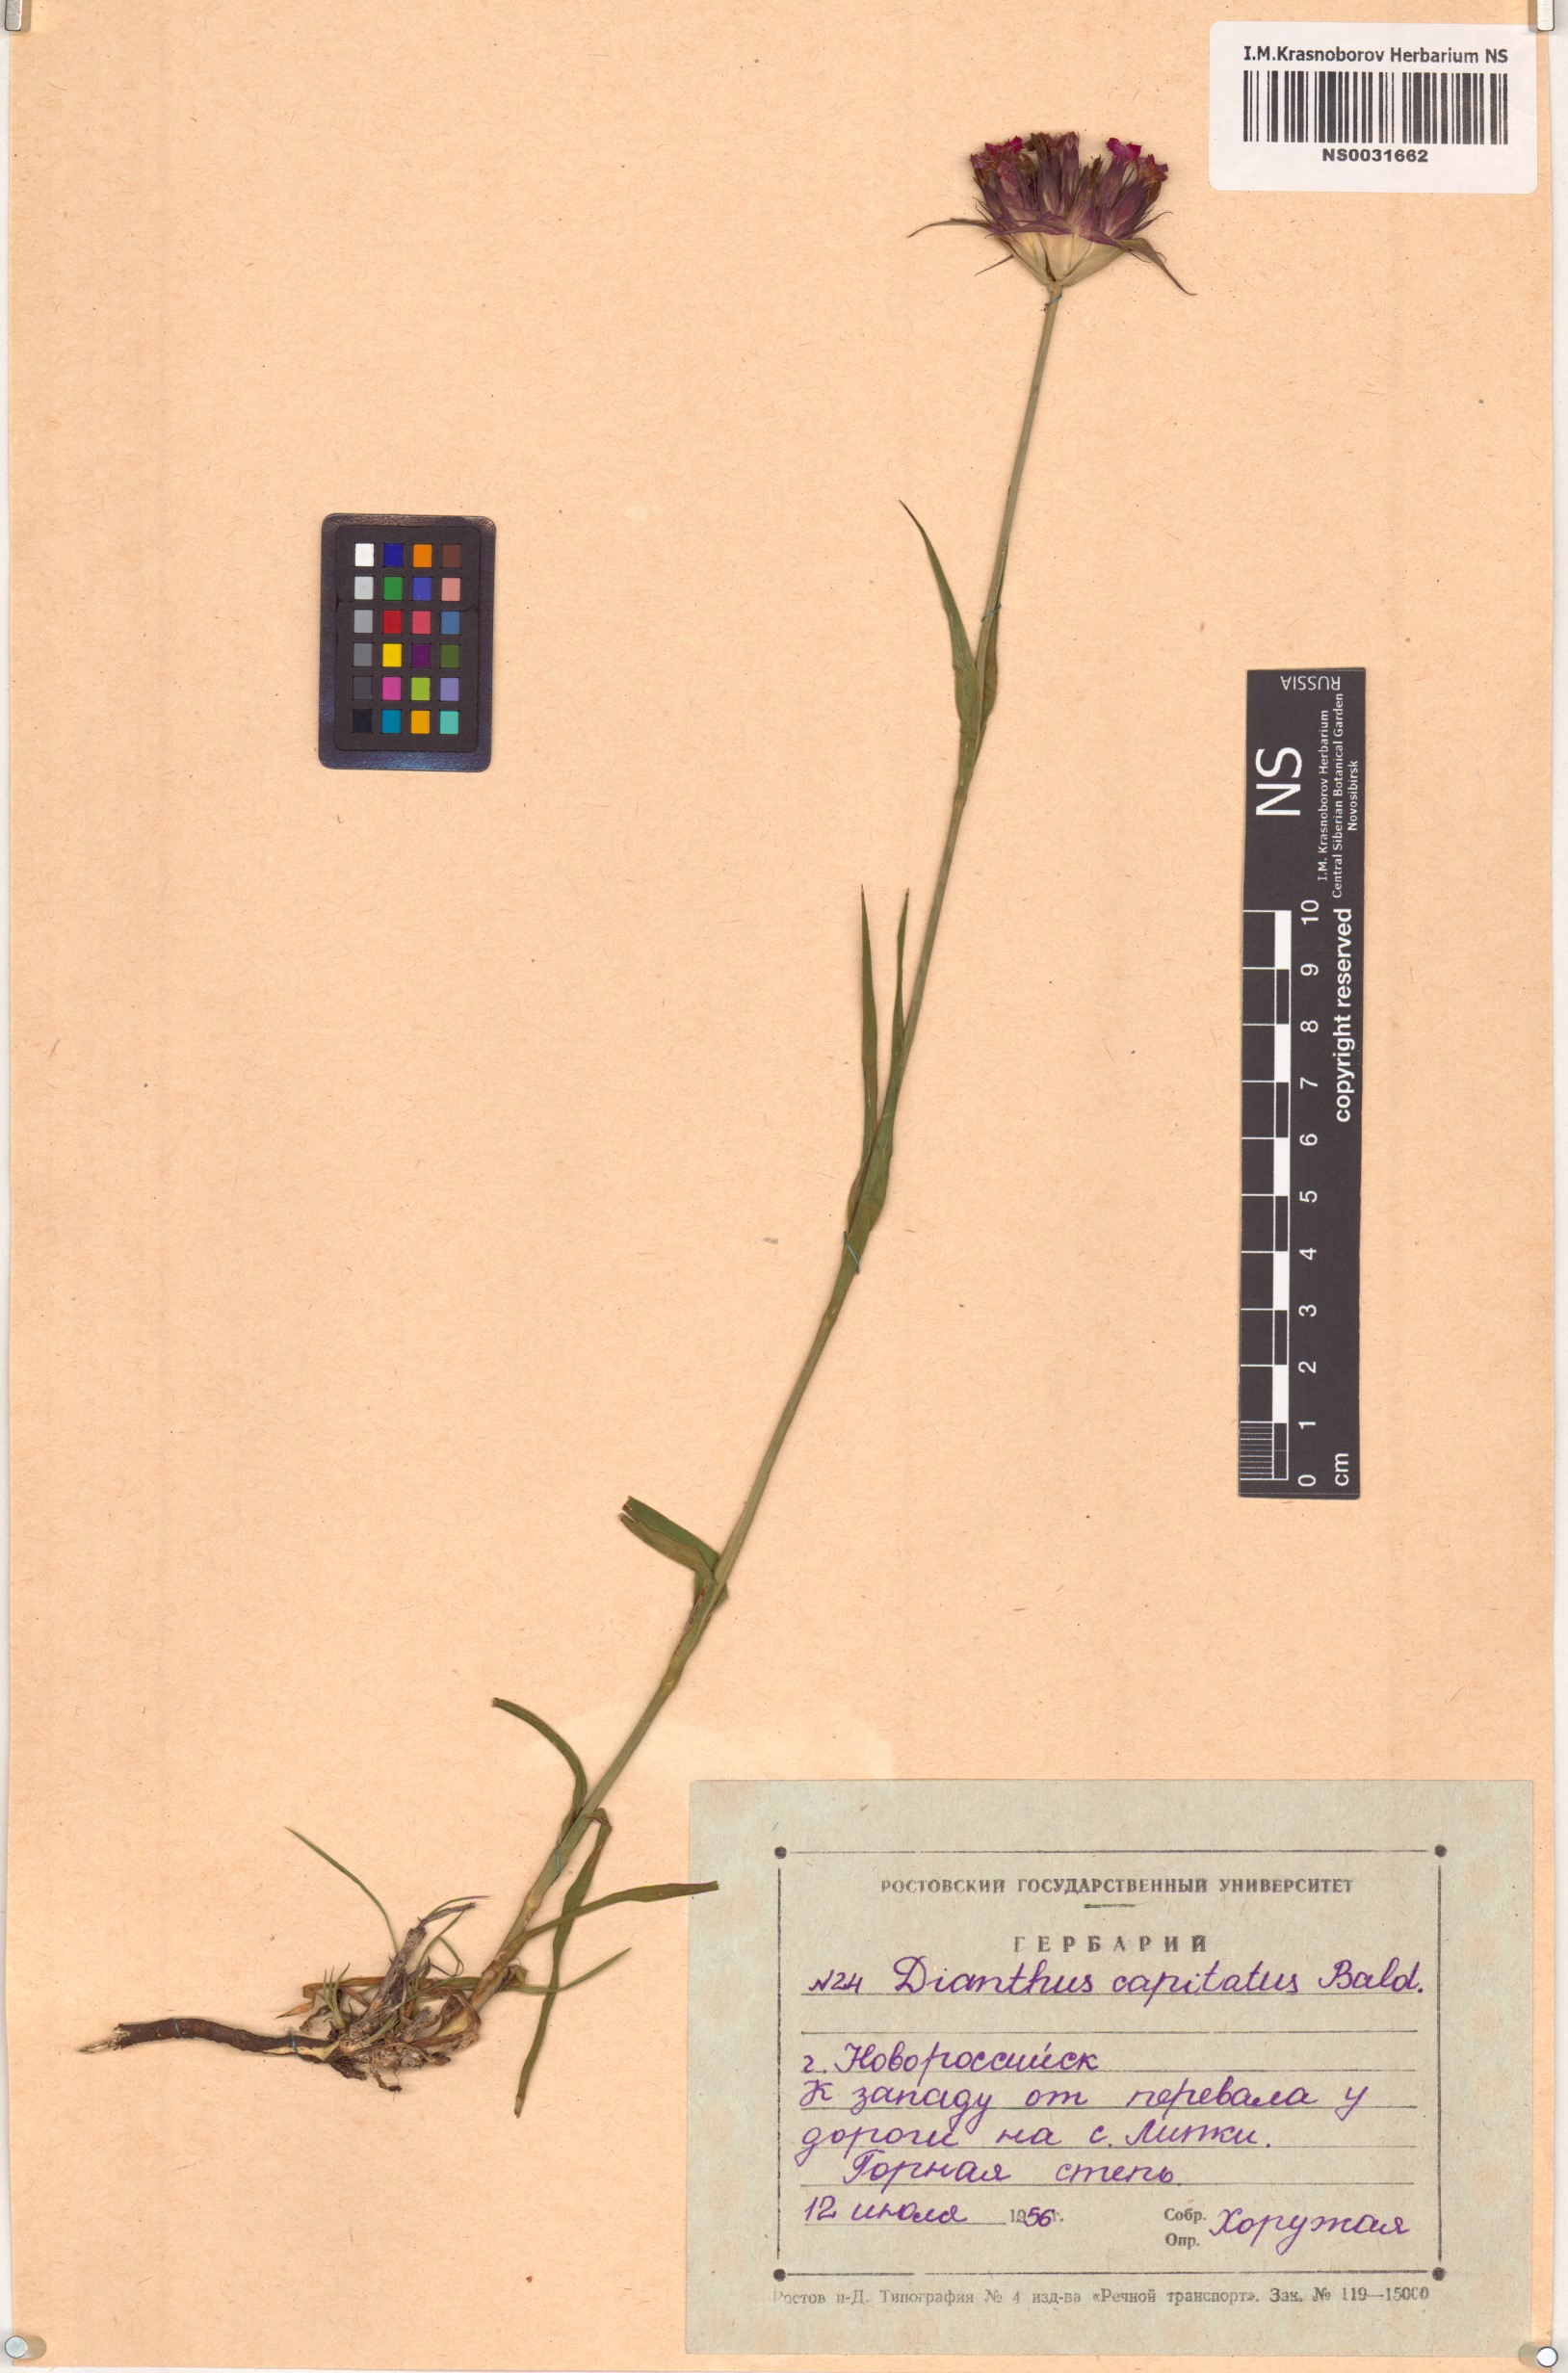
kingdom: Plantae
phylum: Tracheophyta
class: Magnoliopsida
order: Caryophyllales
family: Caryophyllaceae
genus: Dianthus
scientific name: Dianthus capitatus
